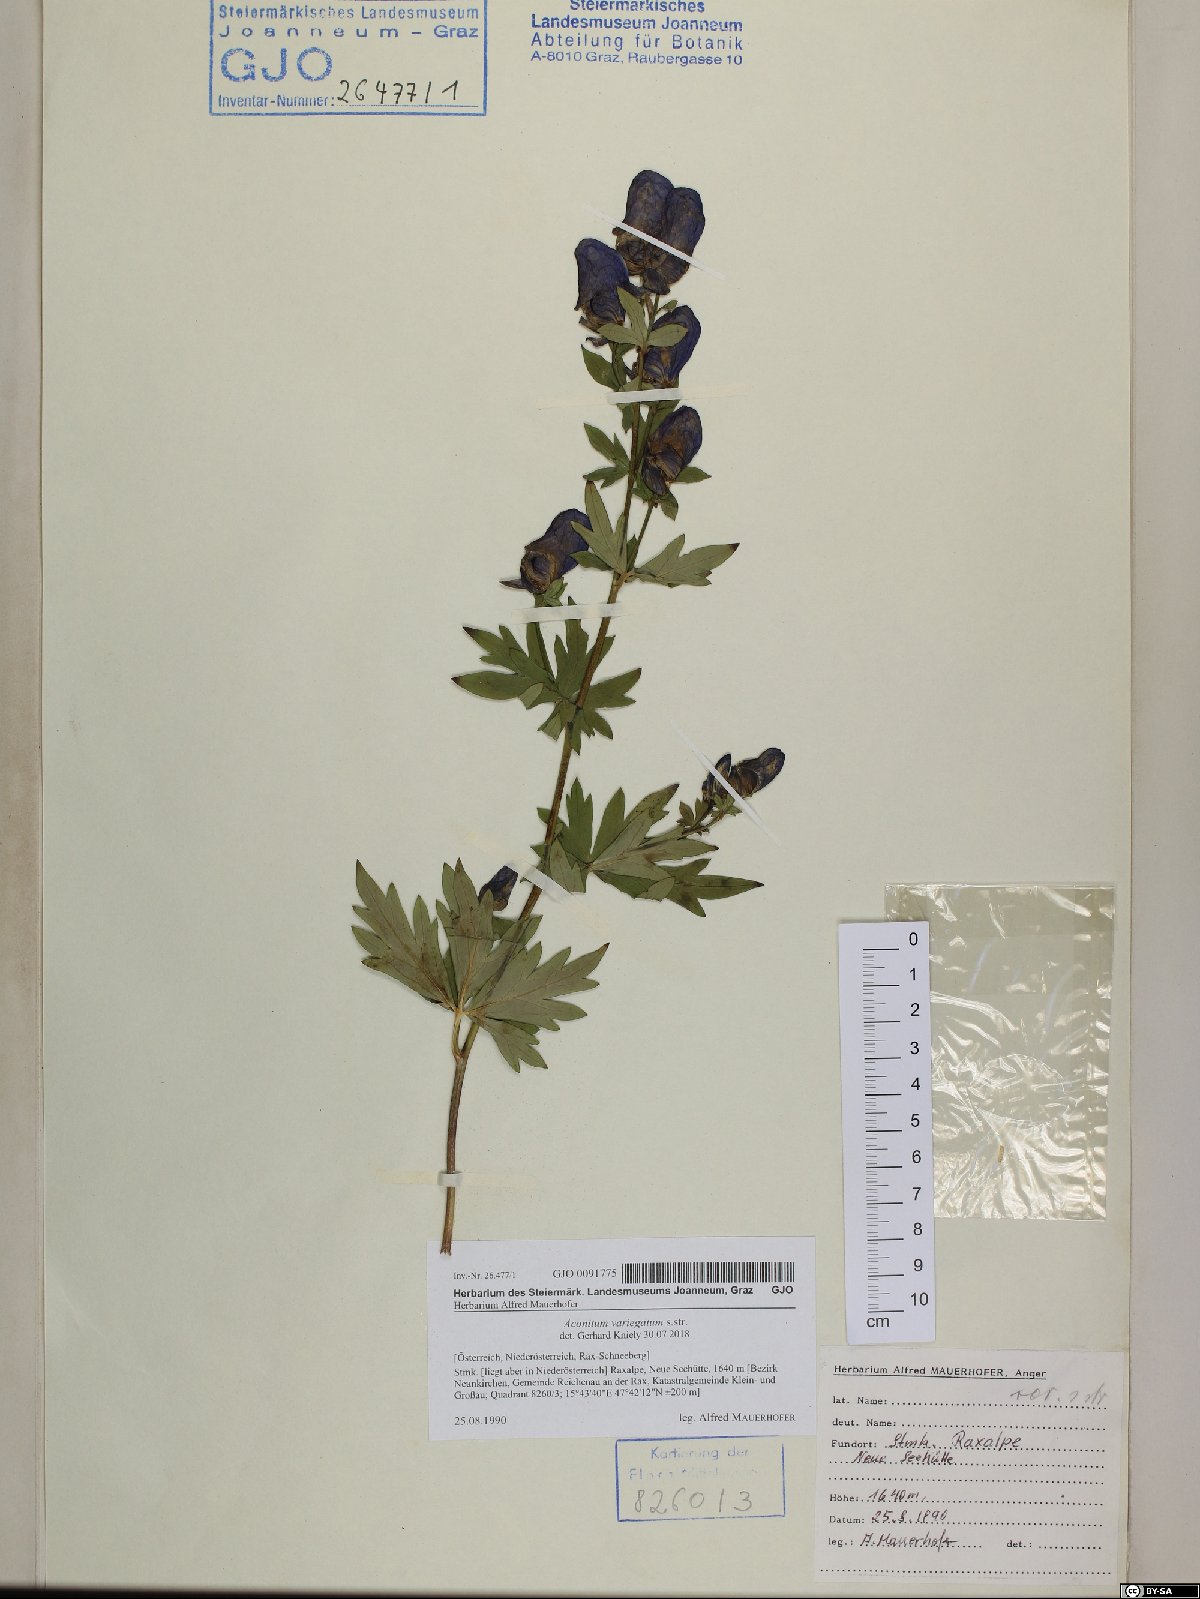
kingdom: Plantae
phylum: Tracheophyta
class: Magnoliopsida
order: Ranunculales
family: Ranunculaceae
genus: Aconitum
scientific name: Aconitum variegatum
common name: Manchurian monkshood
